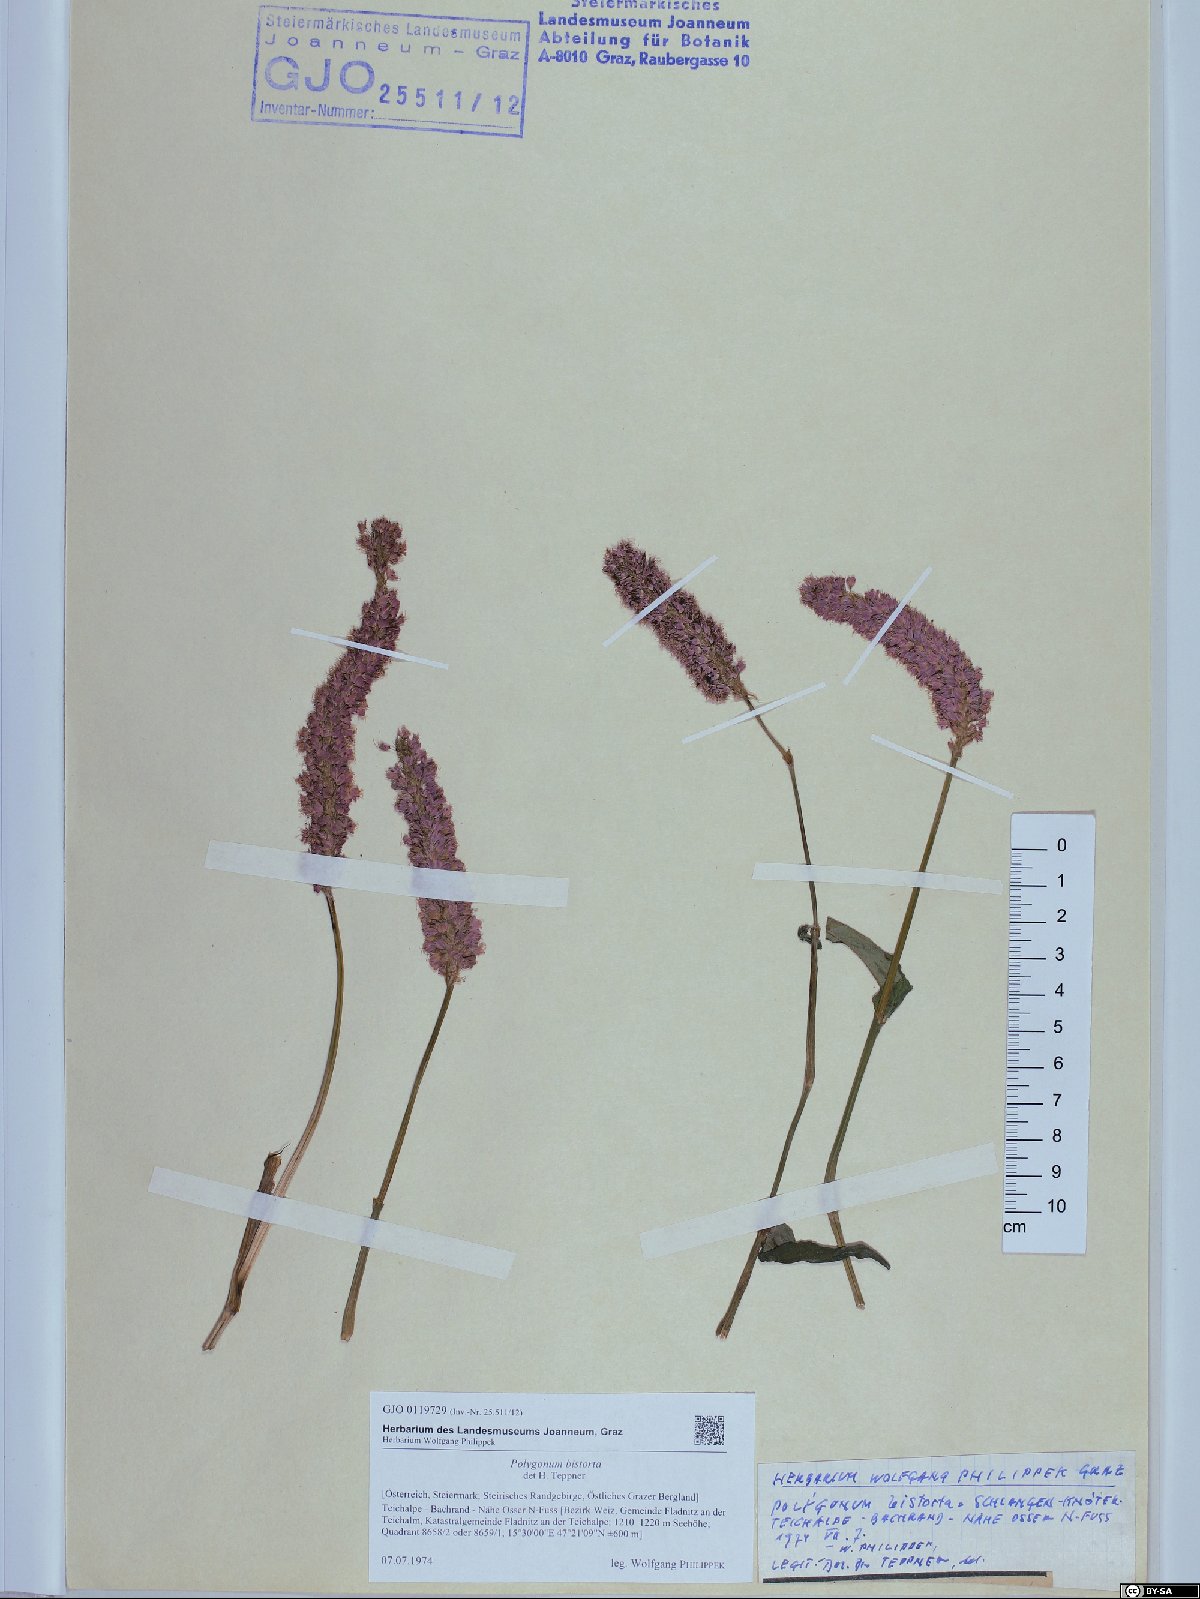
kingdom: Plantae
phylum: Tracheophyta
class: Magnoliopsida
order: Caryophyllales
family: Polygonaceae
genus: Bistorta
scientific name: Bistorta officinalis
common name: Common bistort
